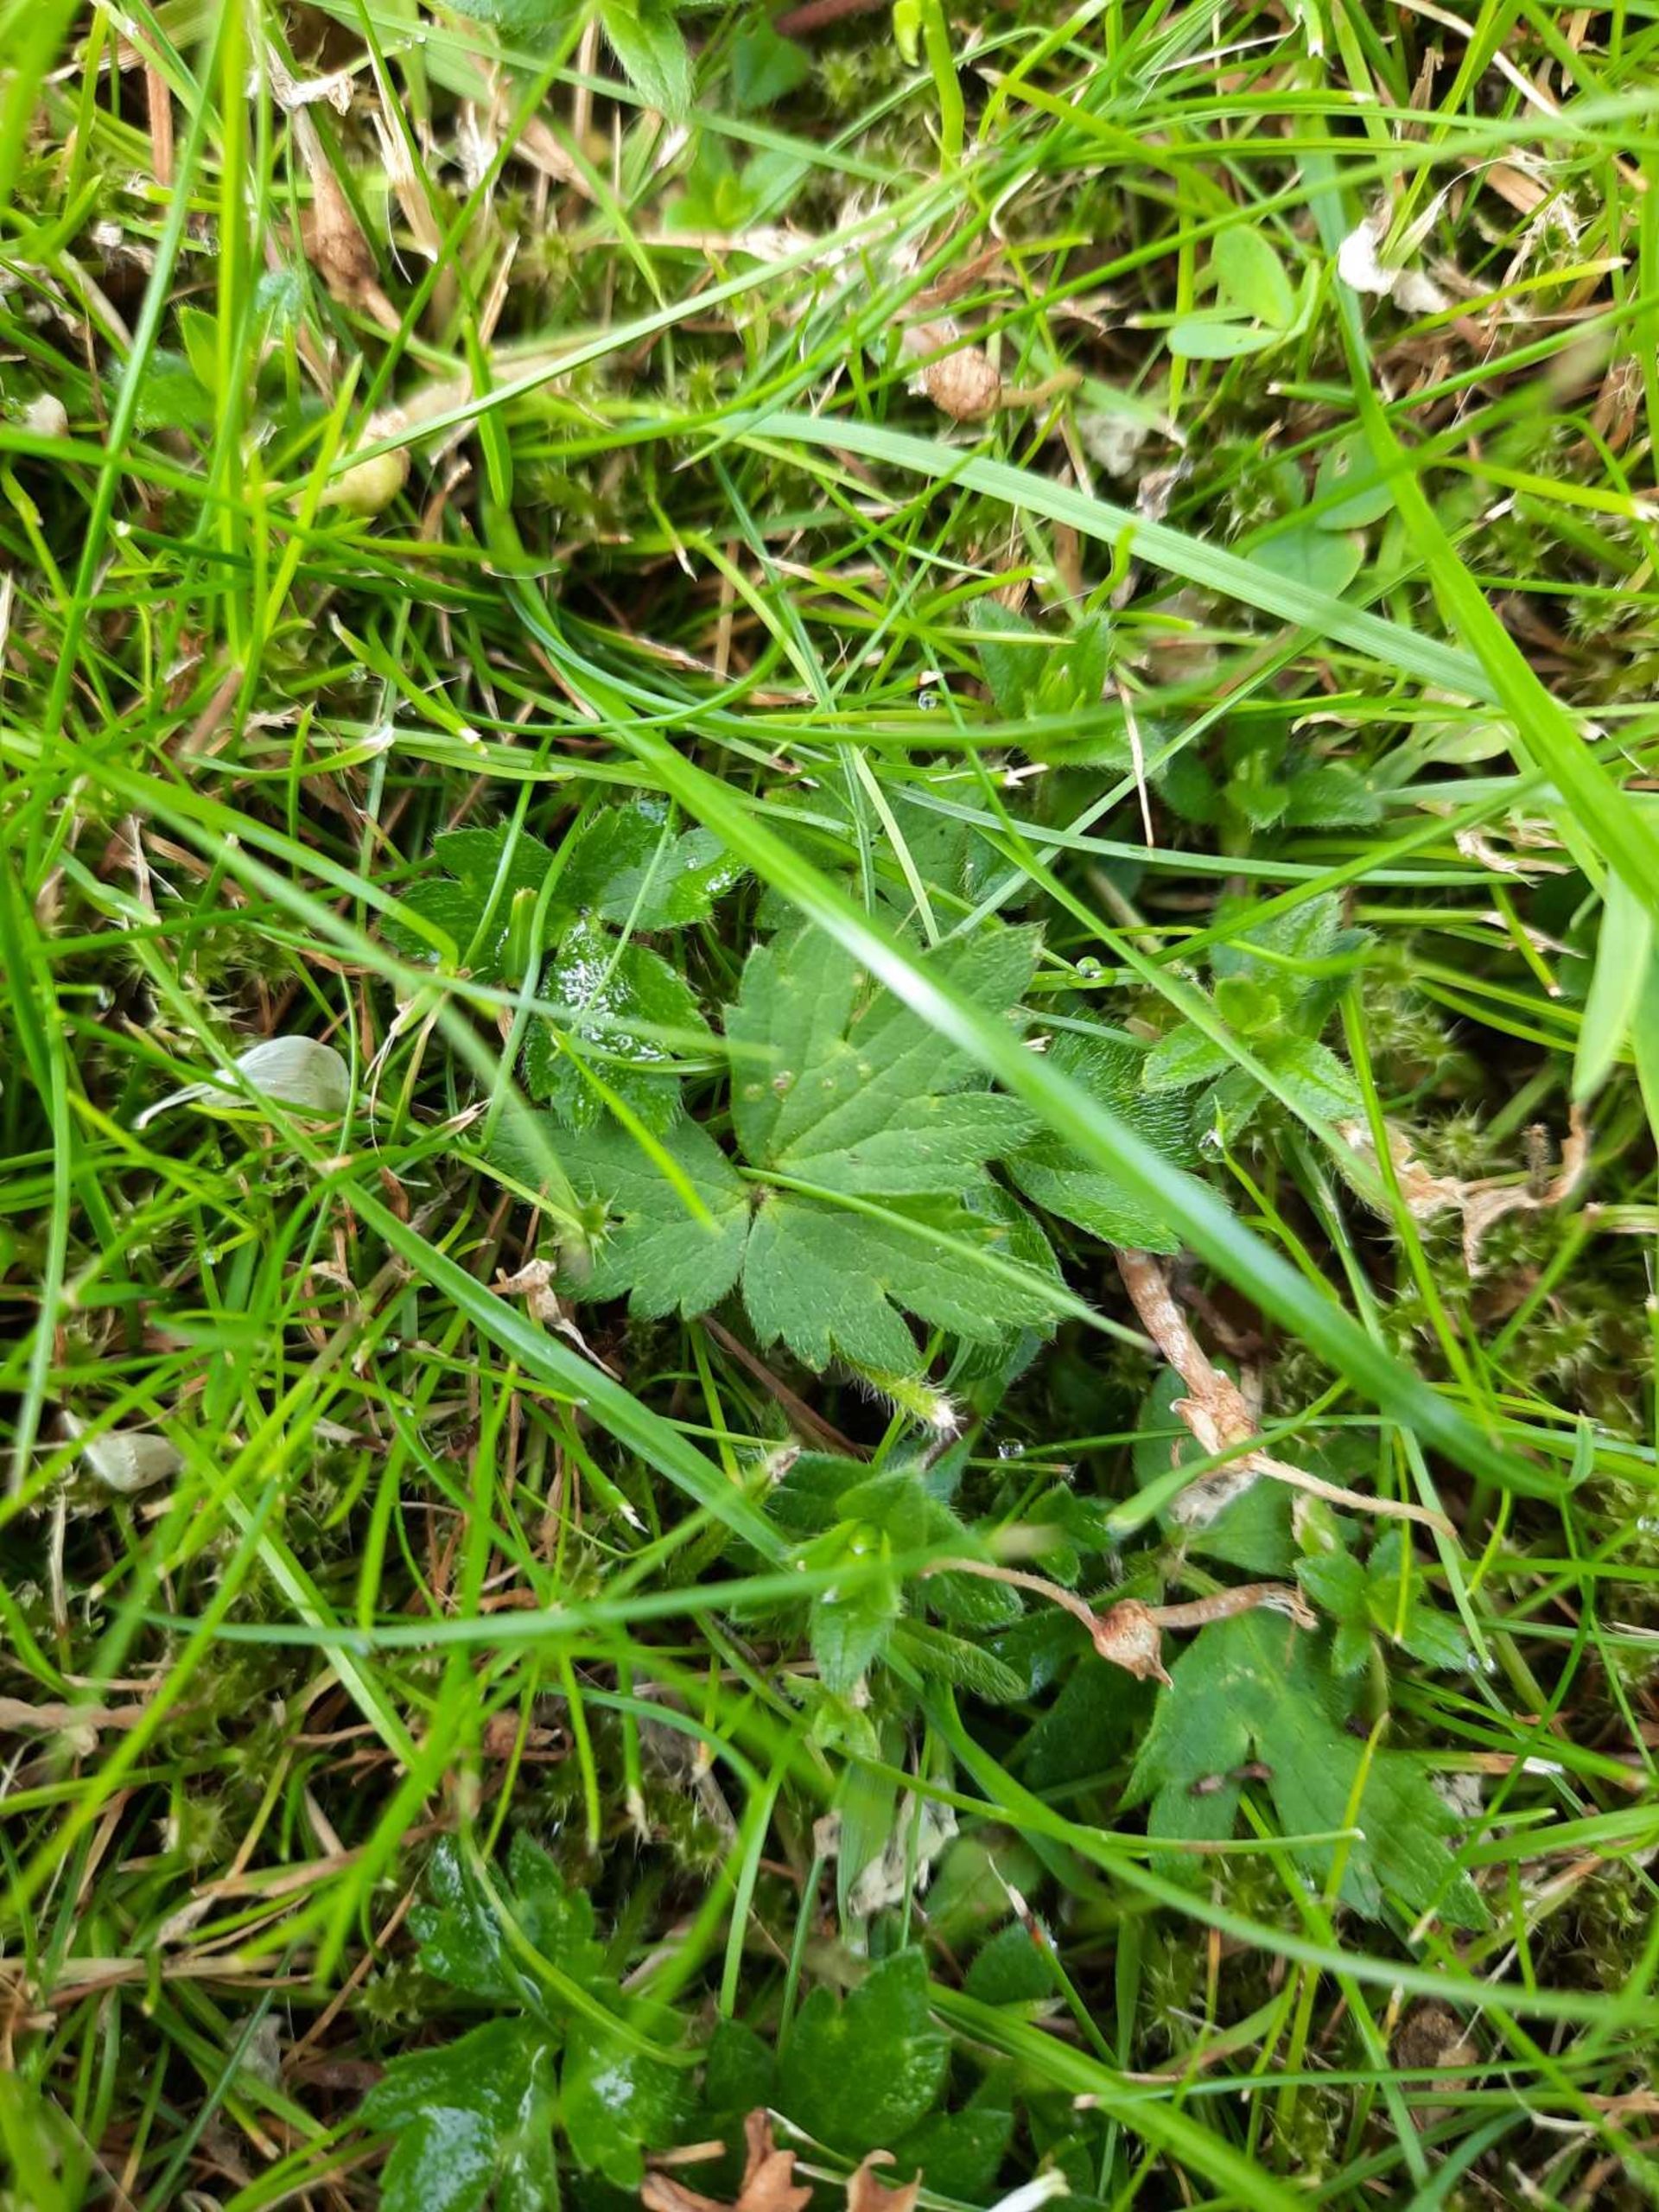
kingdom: Plantae
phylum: Tracheophyta
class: Magnoliopsida
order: Ranunculales
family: Ranunculaceae
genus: Ranunculus
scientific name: Ranunculus repens
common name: Lav ranunkel
